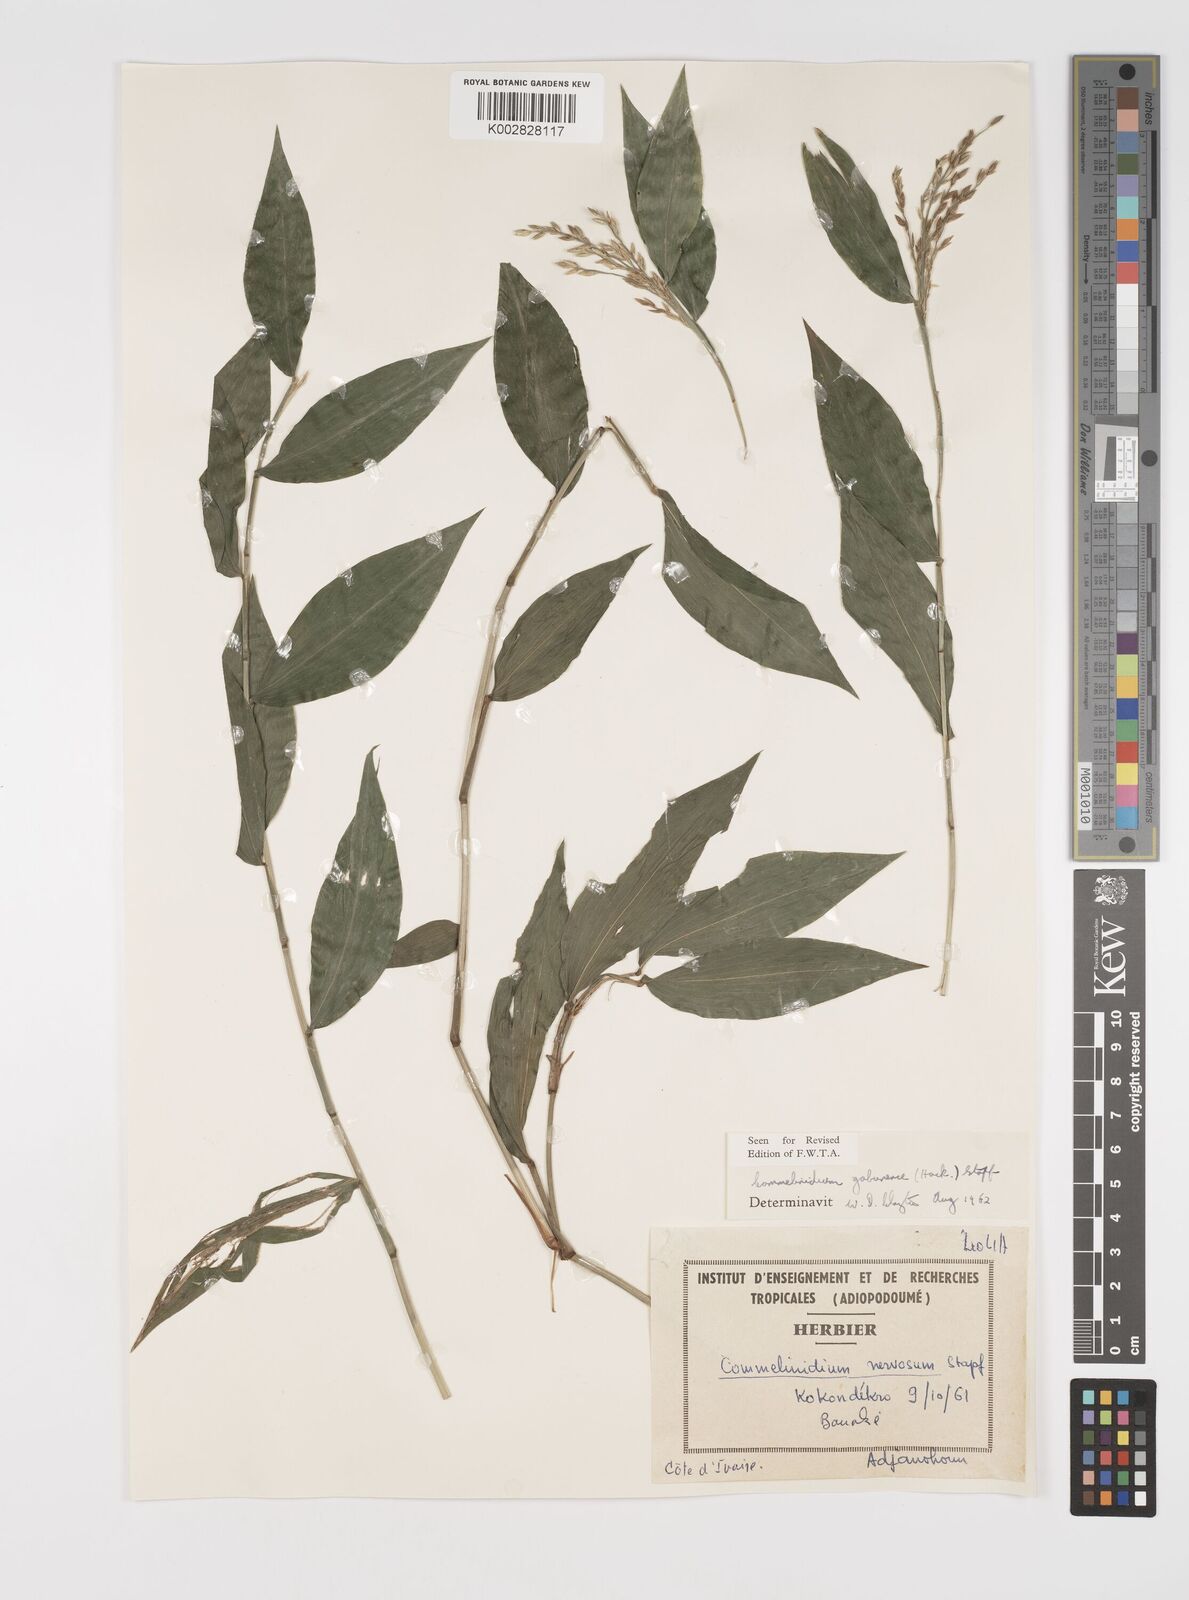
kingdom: Plantae
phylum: Tracheophyta
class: Liliopsida
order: Poales
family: Poaceae
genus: Acroceras
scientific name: Acroceras gabunense
